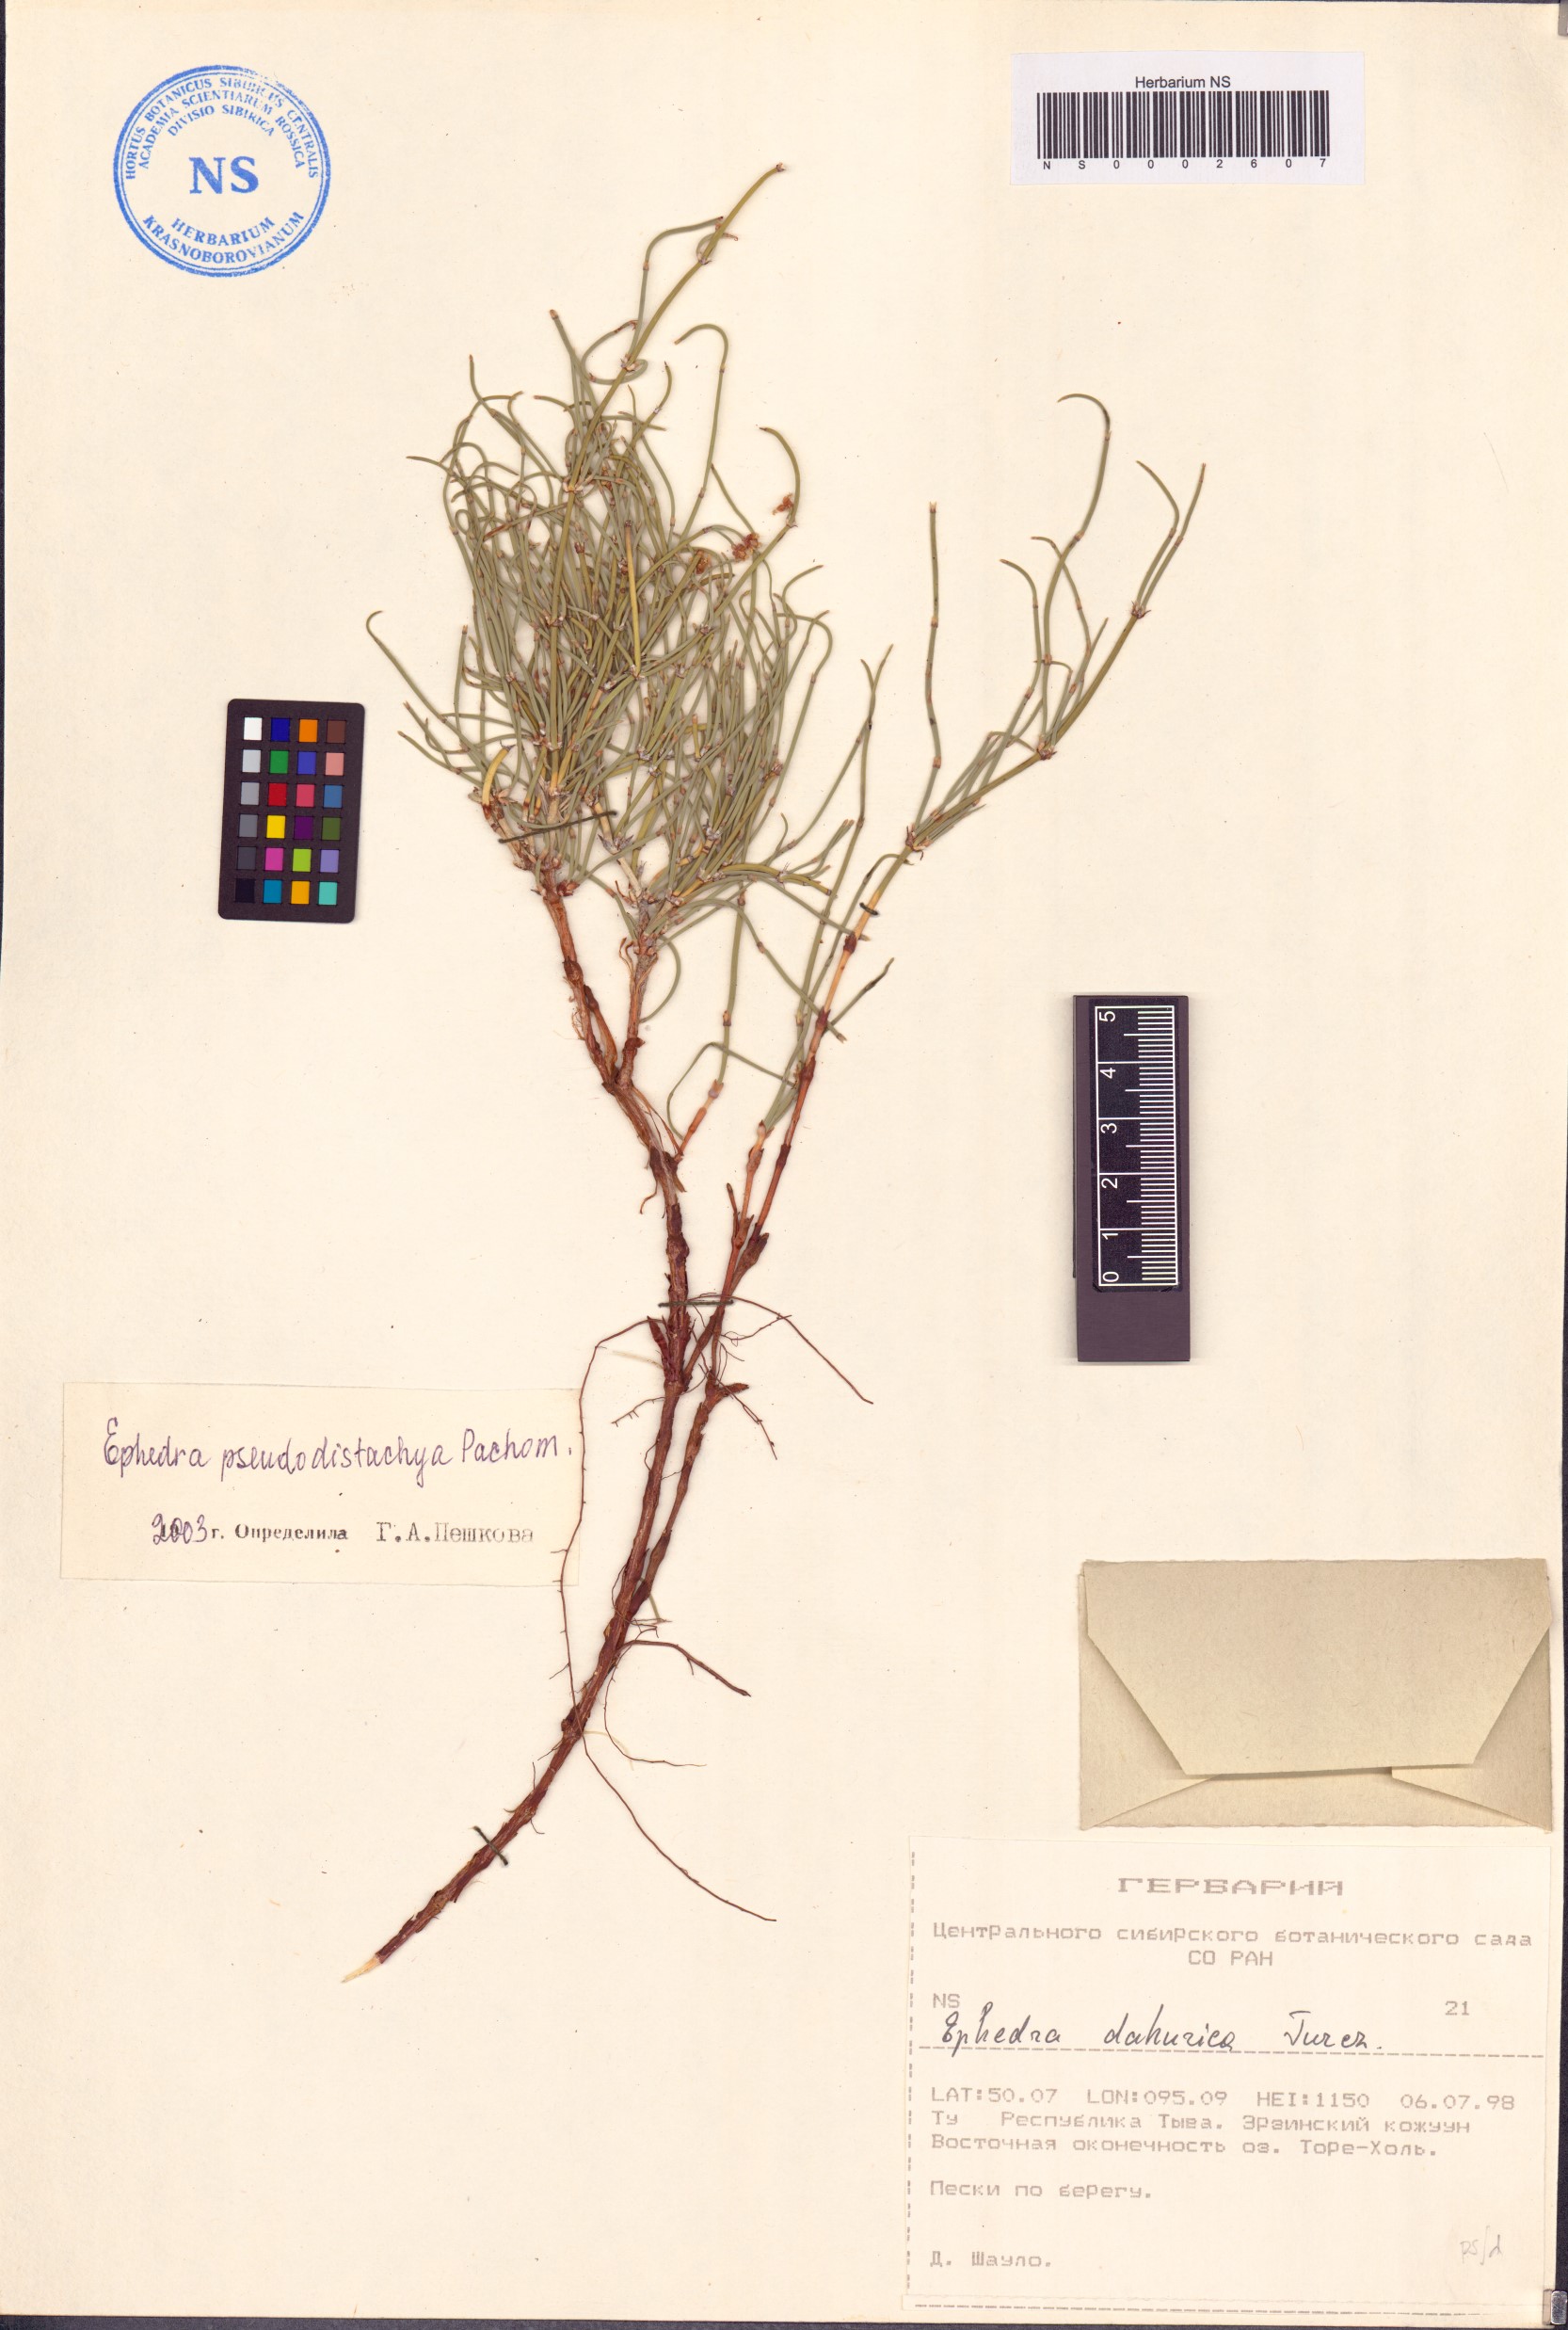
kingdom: Plantae
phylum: Tracheophyta
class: Gnetopsida
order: Ephedrales
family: Ephedraceae
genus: Ephedra
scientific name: Ephedra pseudodistachya
